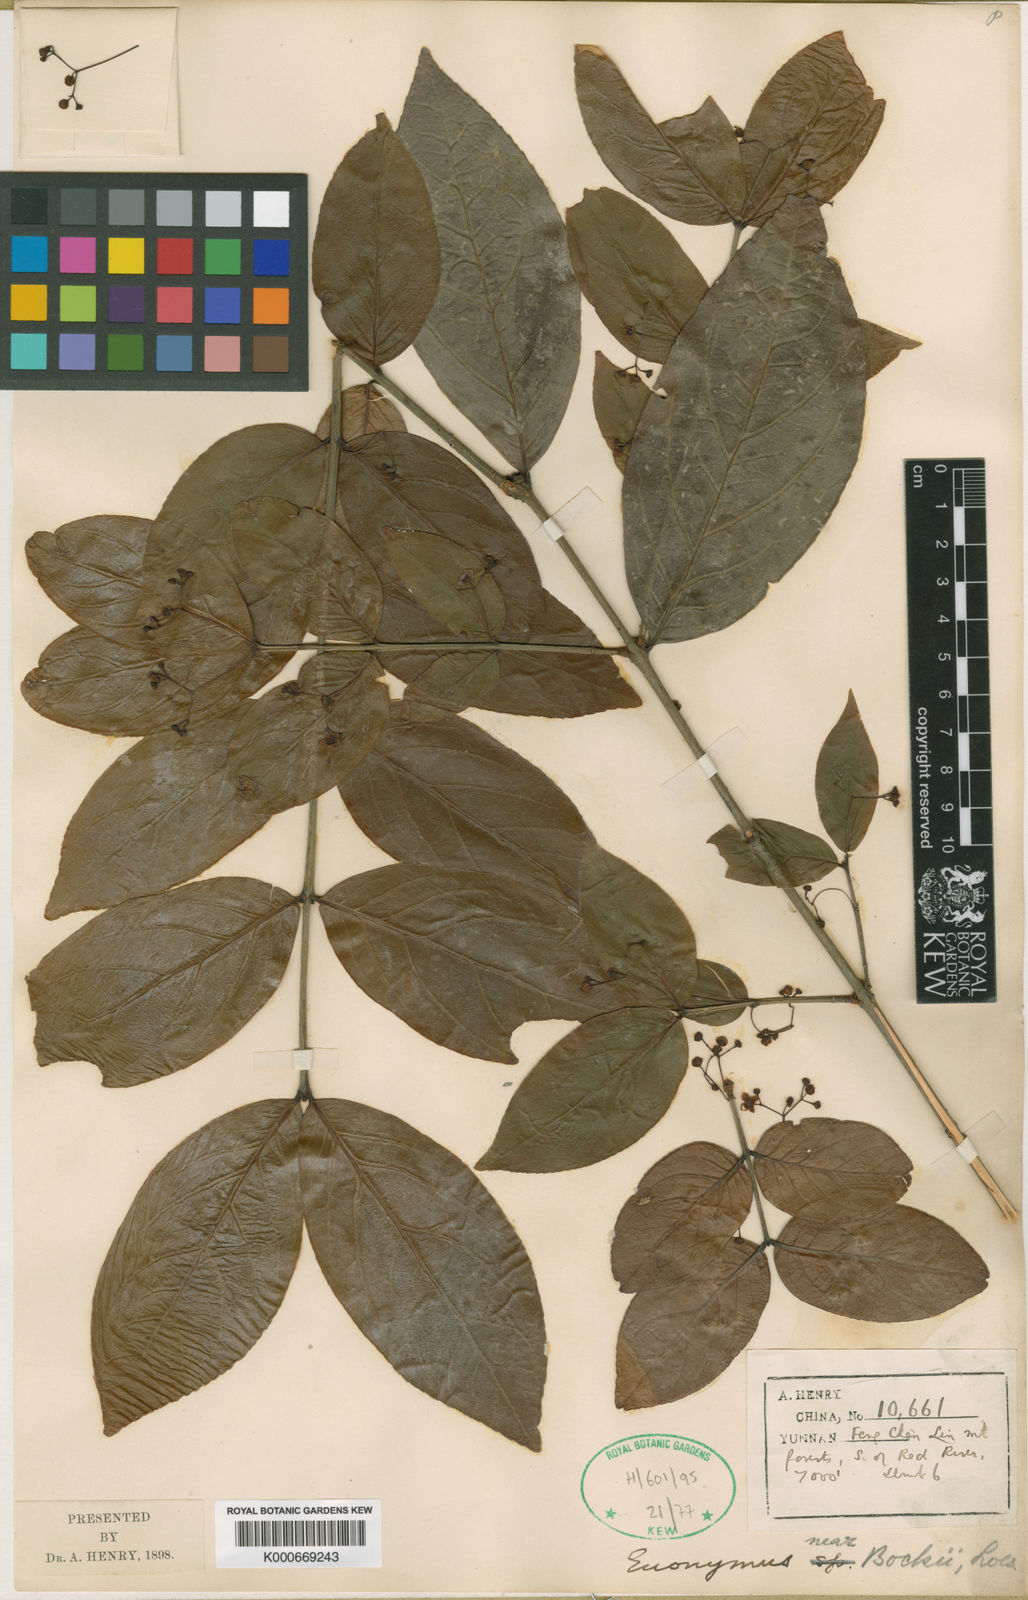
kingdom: Plantae
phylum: Tracheophyta
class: Magnoliopsida
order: Celastrales
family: Celastraceae
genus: Euonymus
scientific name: Euonymus bockii
